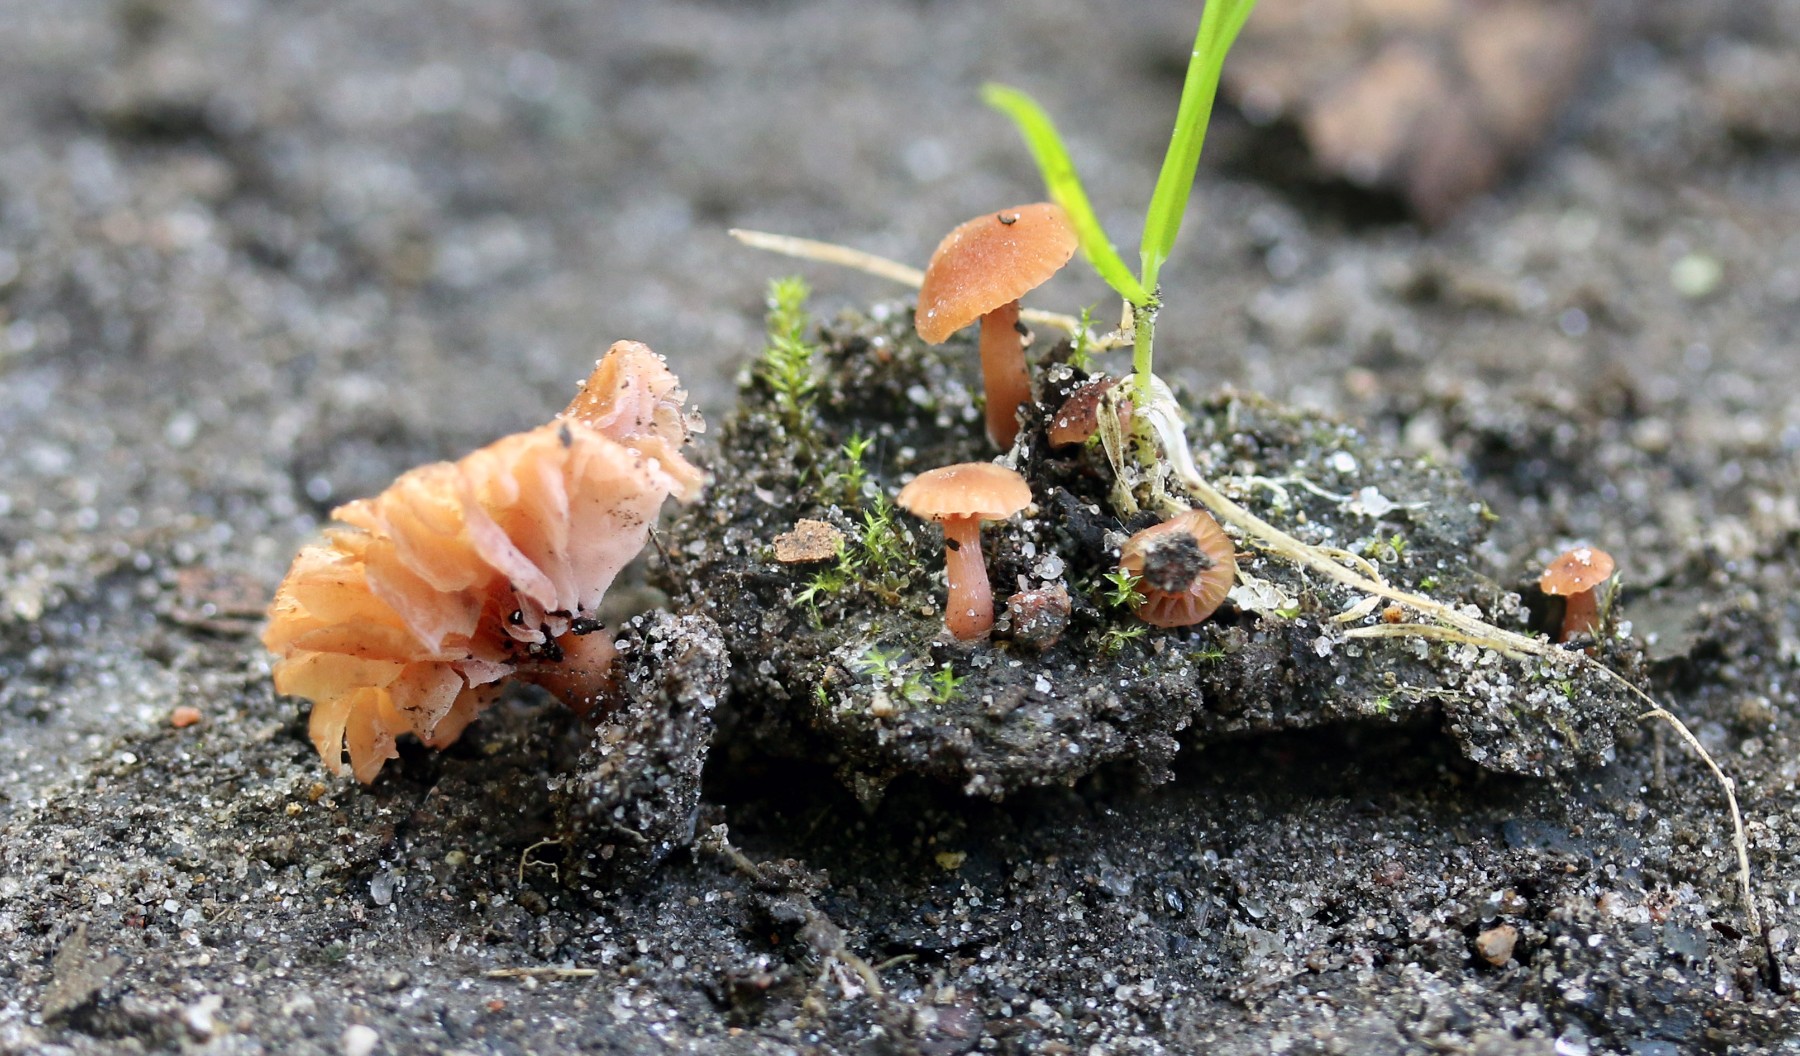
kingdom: Fungi
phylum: Basidiomycota
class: Agaricomycetes
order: Agaricales
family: Hydnangiaceae
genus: Laccaria
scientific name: Laccaria tortilis
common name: krybende ametysthat
